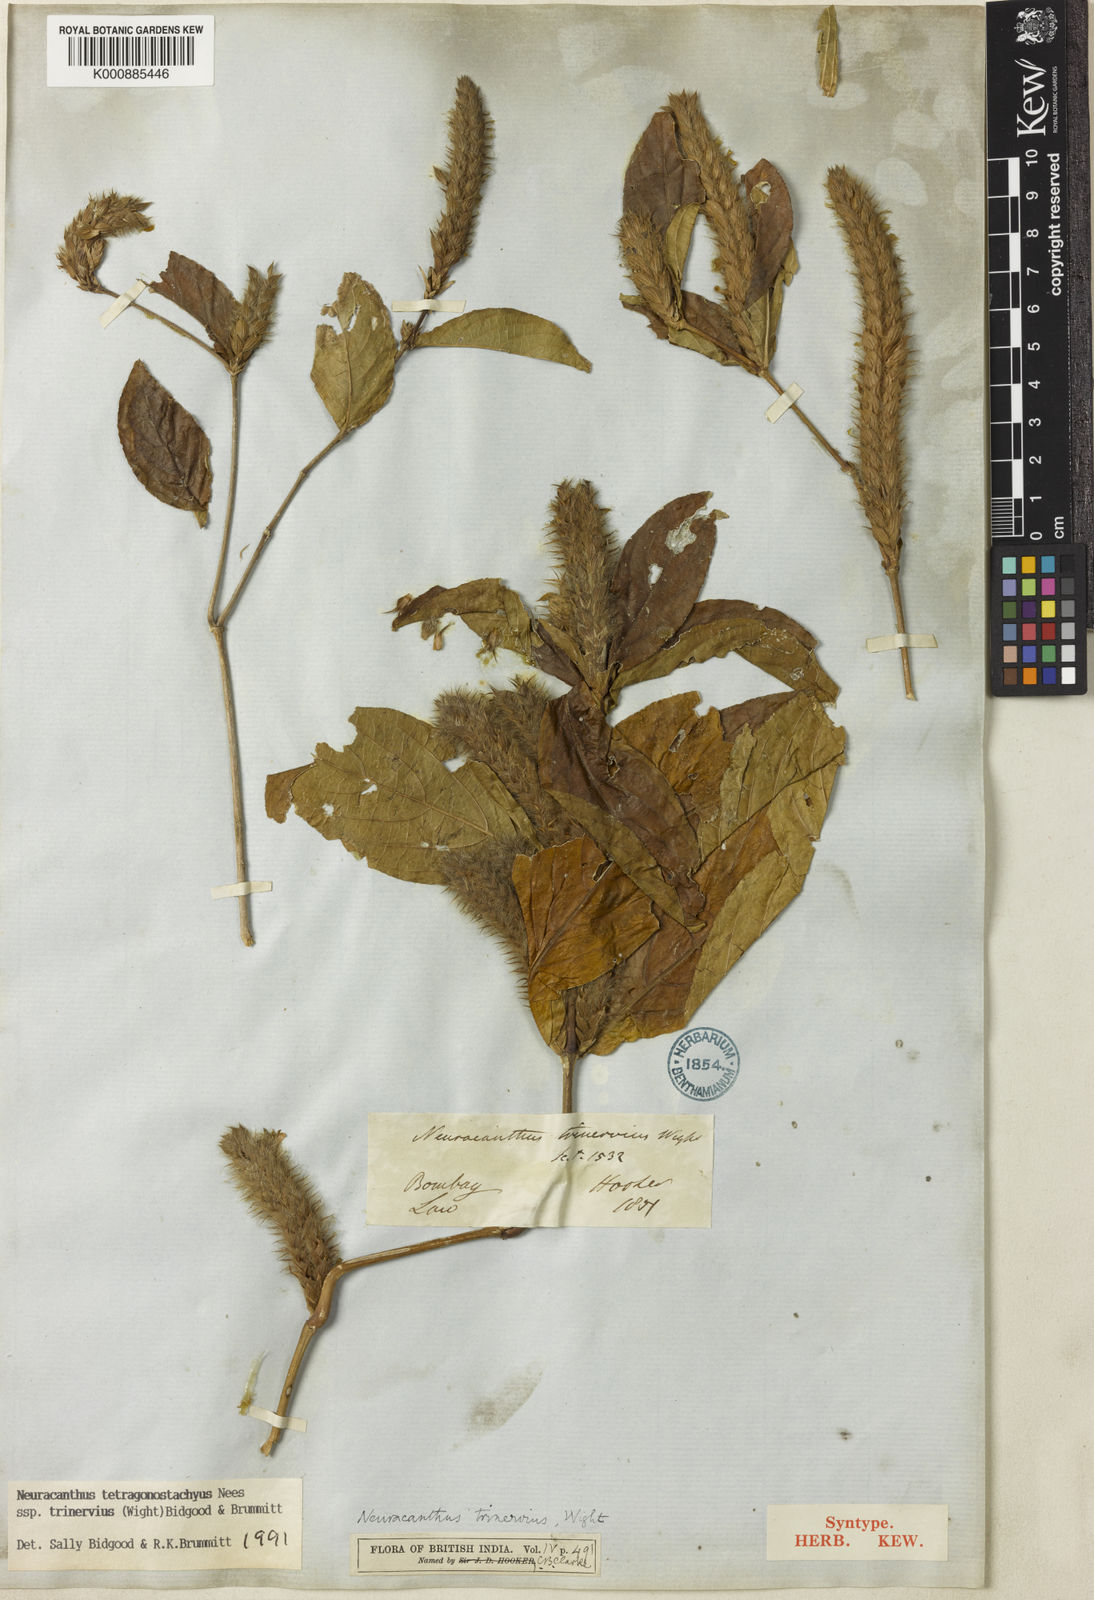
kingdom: Plantae
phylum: Tracheophyta
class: Magnoliopsida
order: Lamiales
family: Acanthaceae
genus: Neuracanthus
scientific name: Neuracanthus tetragonostachyus
